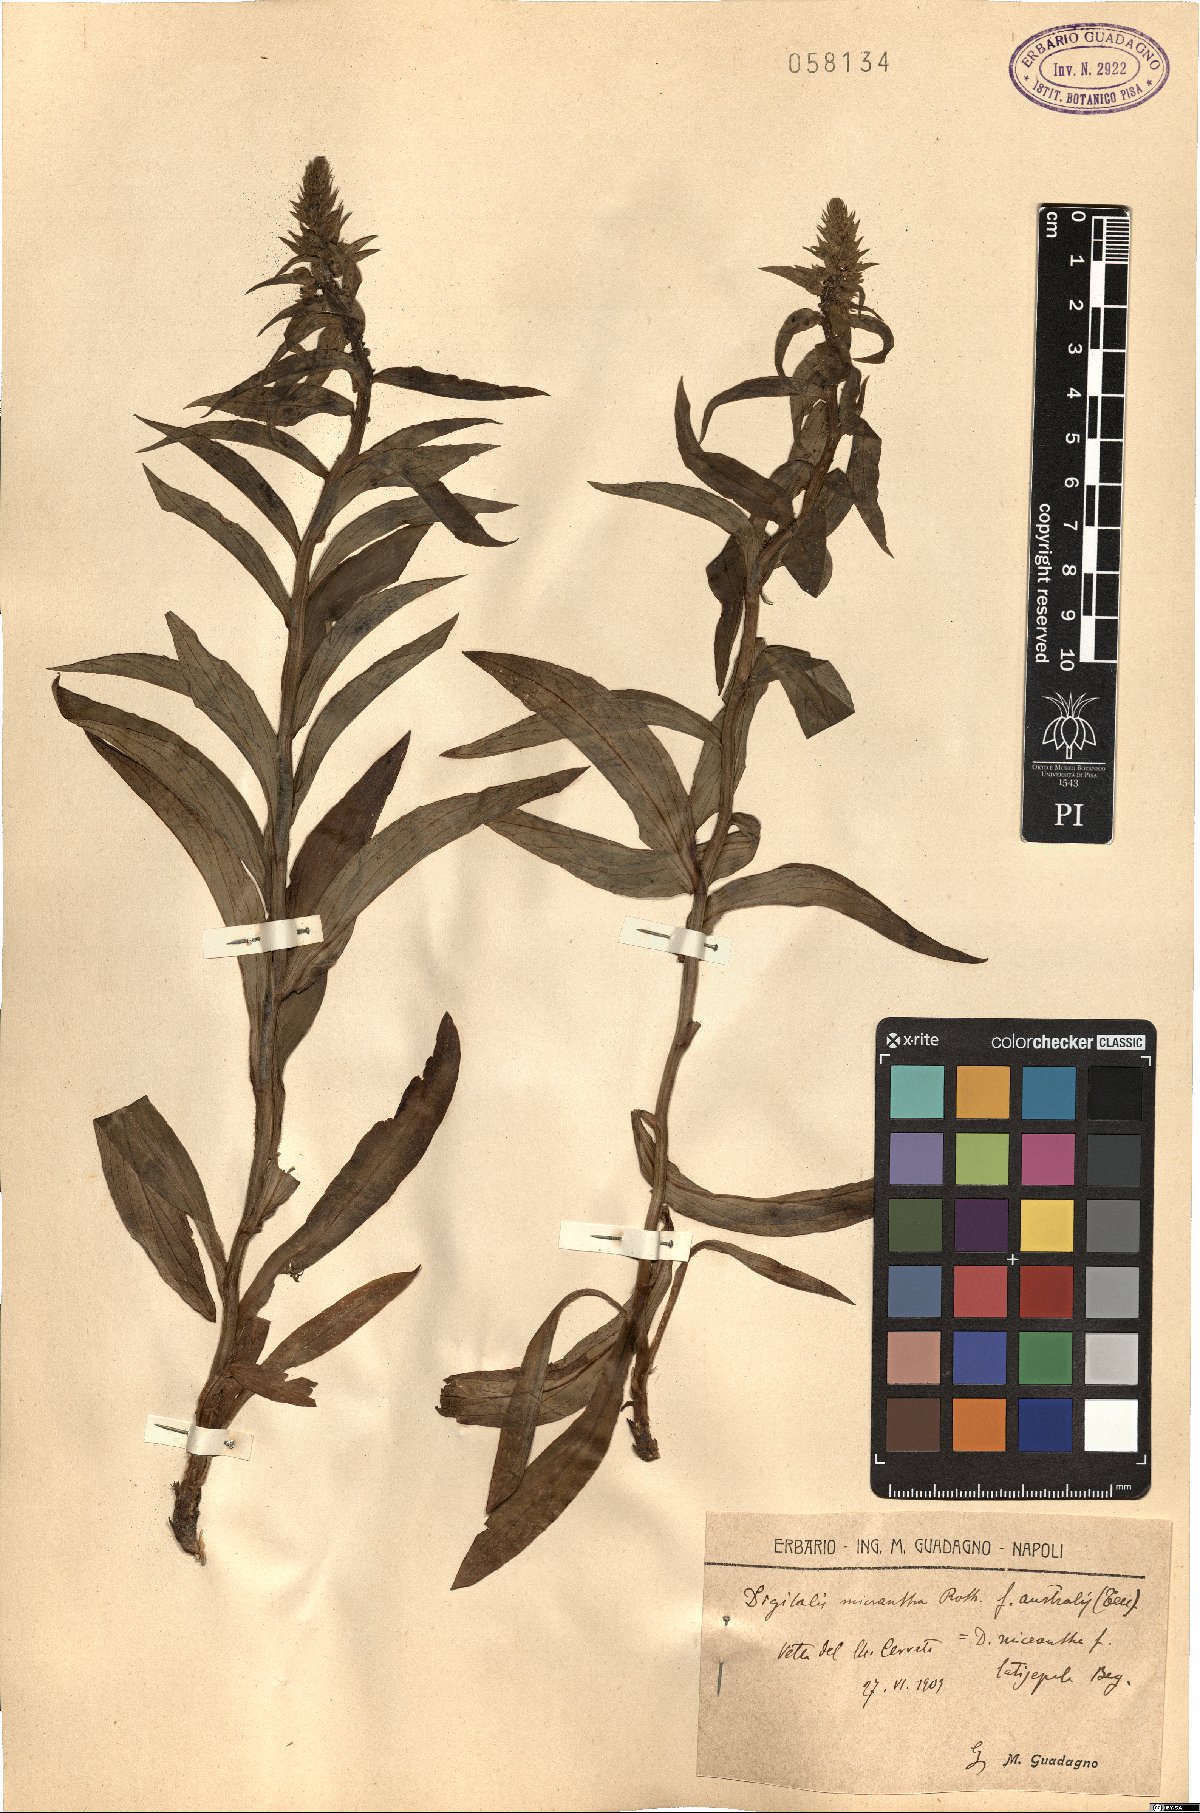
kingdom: Plantae
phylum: Tracheophyta
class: Magnoliopsida
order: Lamiales
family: Plantaginaceae
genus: Digitalis
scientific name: Digitalis lutea
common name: Straw foxglove
